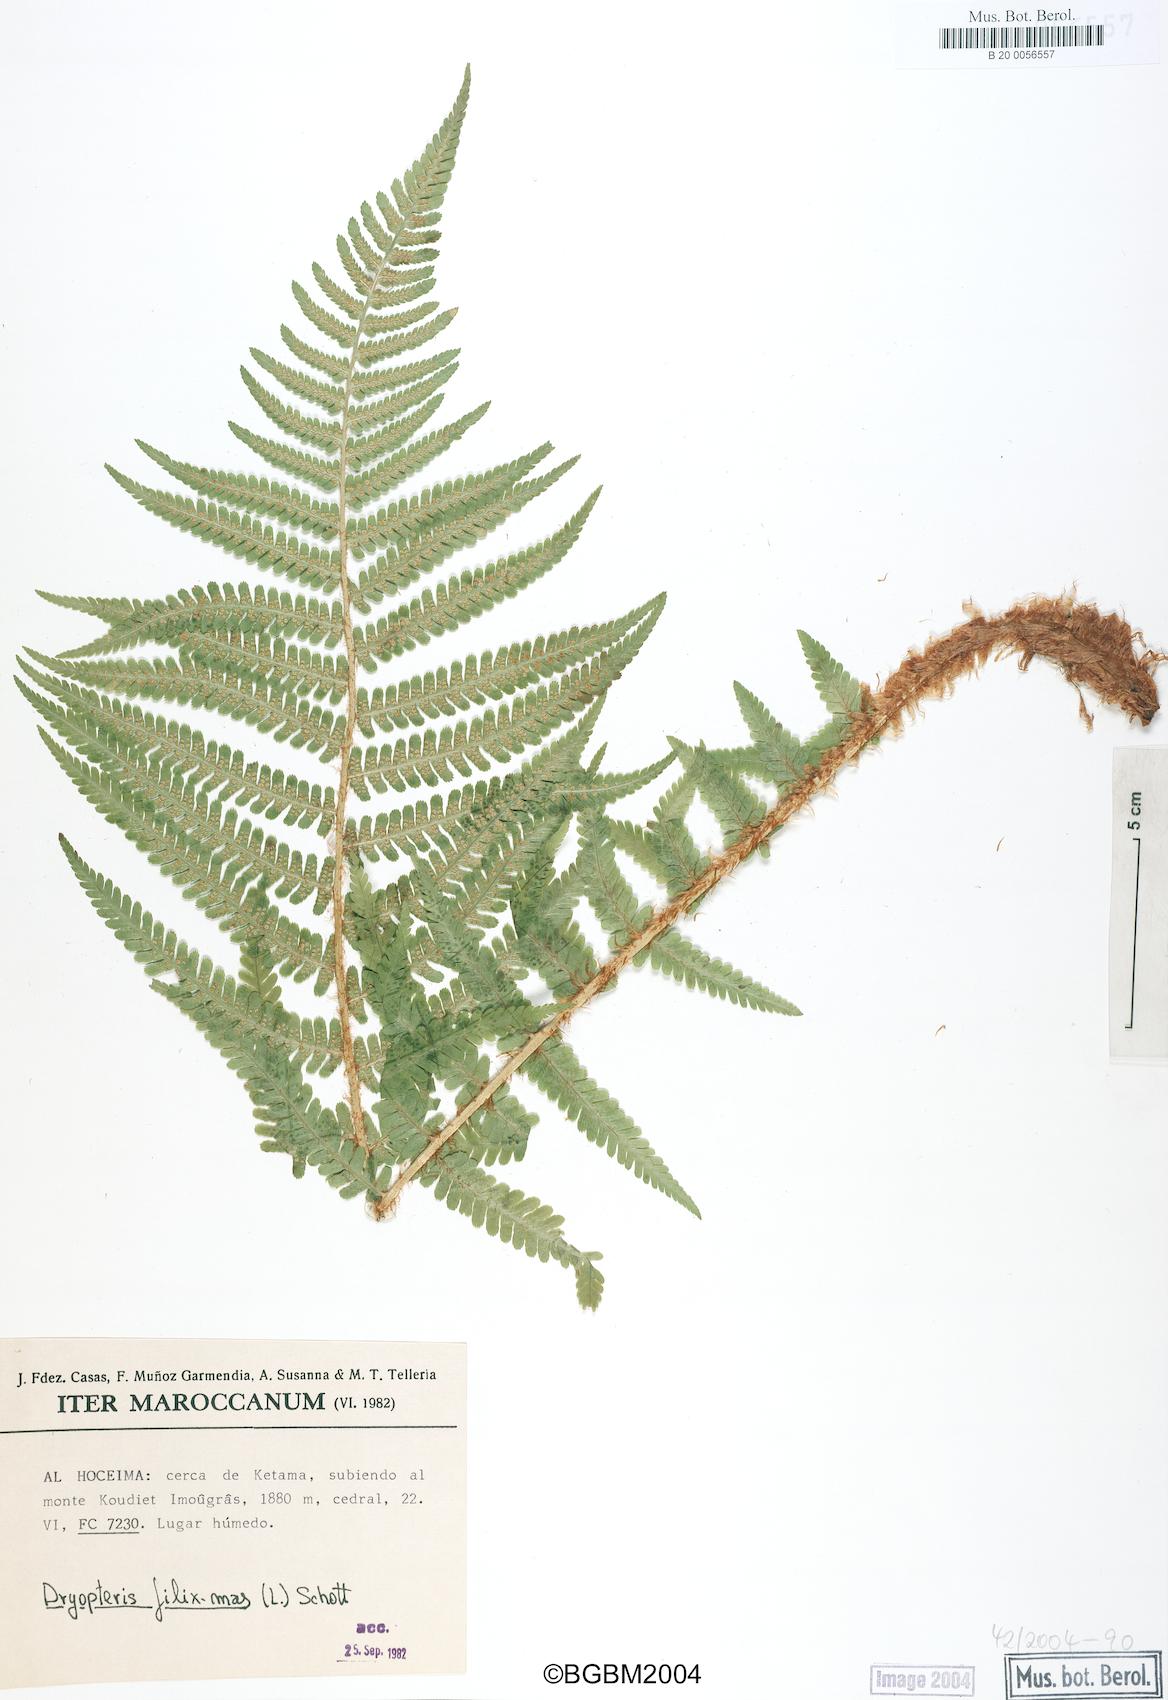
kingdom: Plantae
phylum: Tracheophyta
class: Polypodiopsida
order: Polypodiales
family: Dryopteridaceae
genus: Dryopteris
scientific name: Dryopteris filix-mas
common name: Male fern
